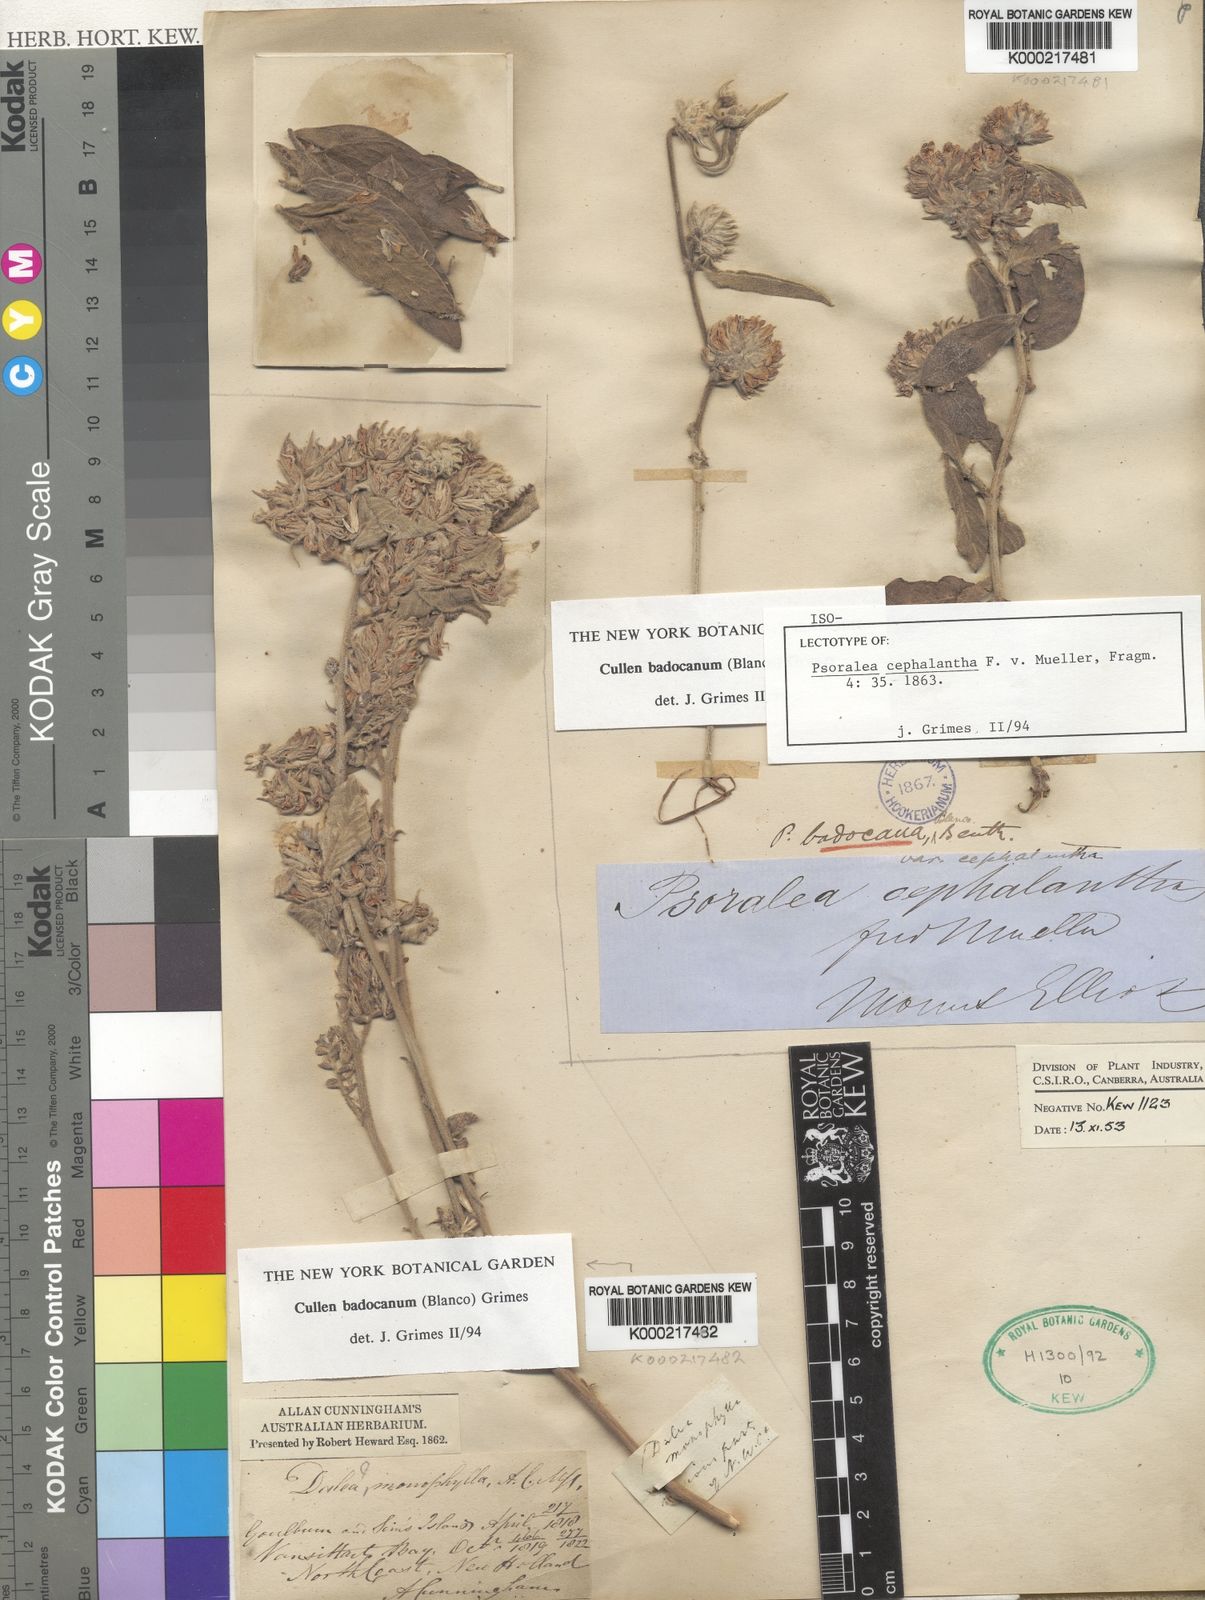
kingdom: Plantae
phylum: Tracheophyta
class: Magnoliopsida
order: Fabales
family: Fabaceae
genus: Cullen
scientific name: Cullen
